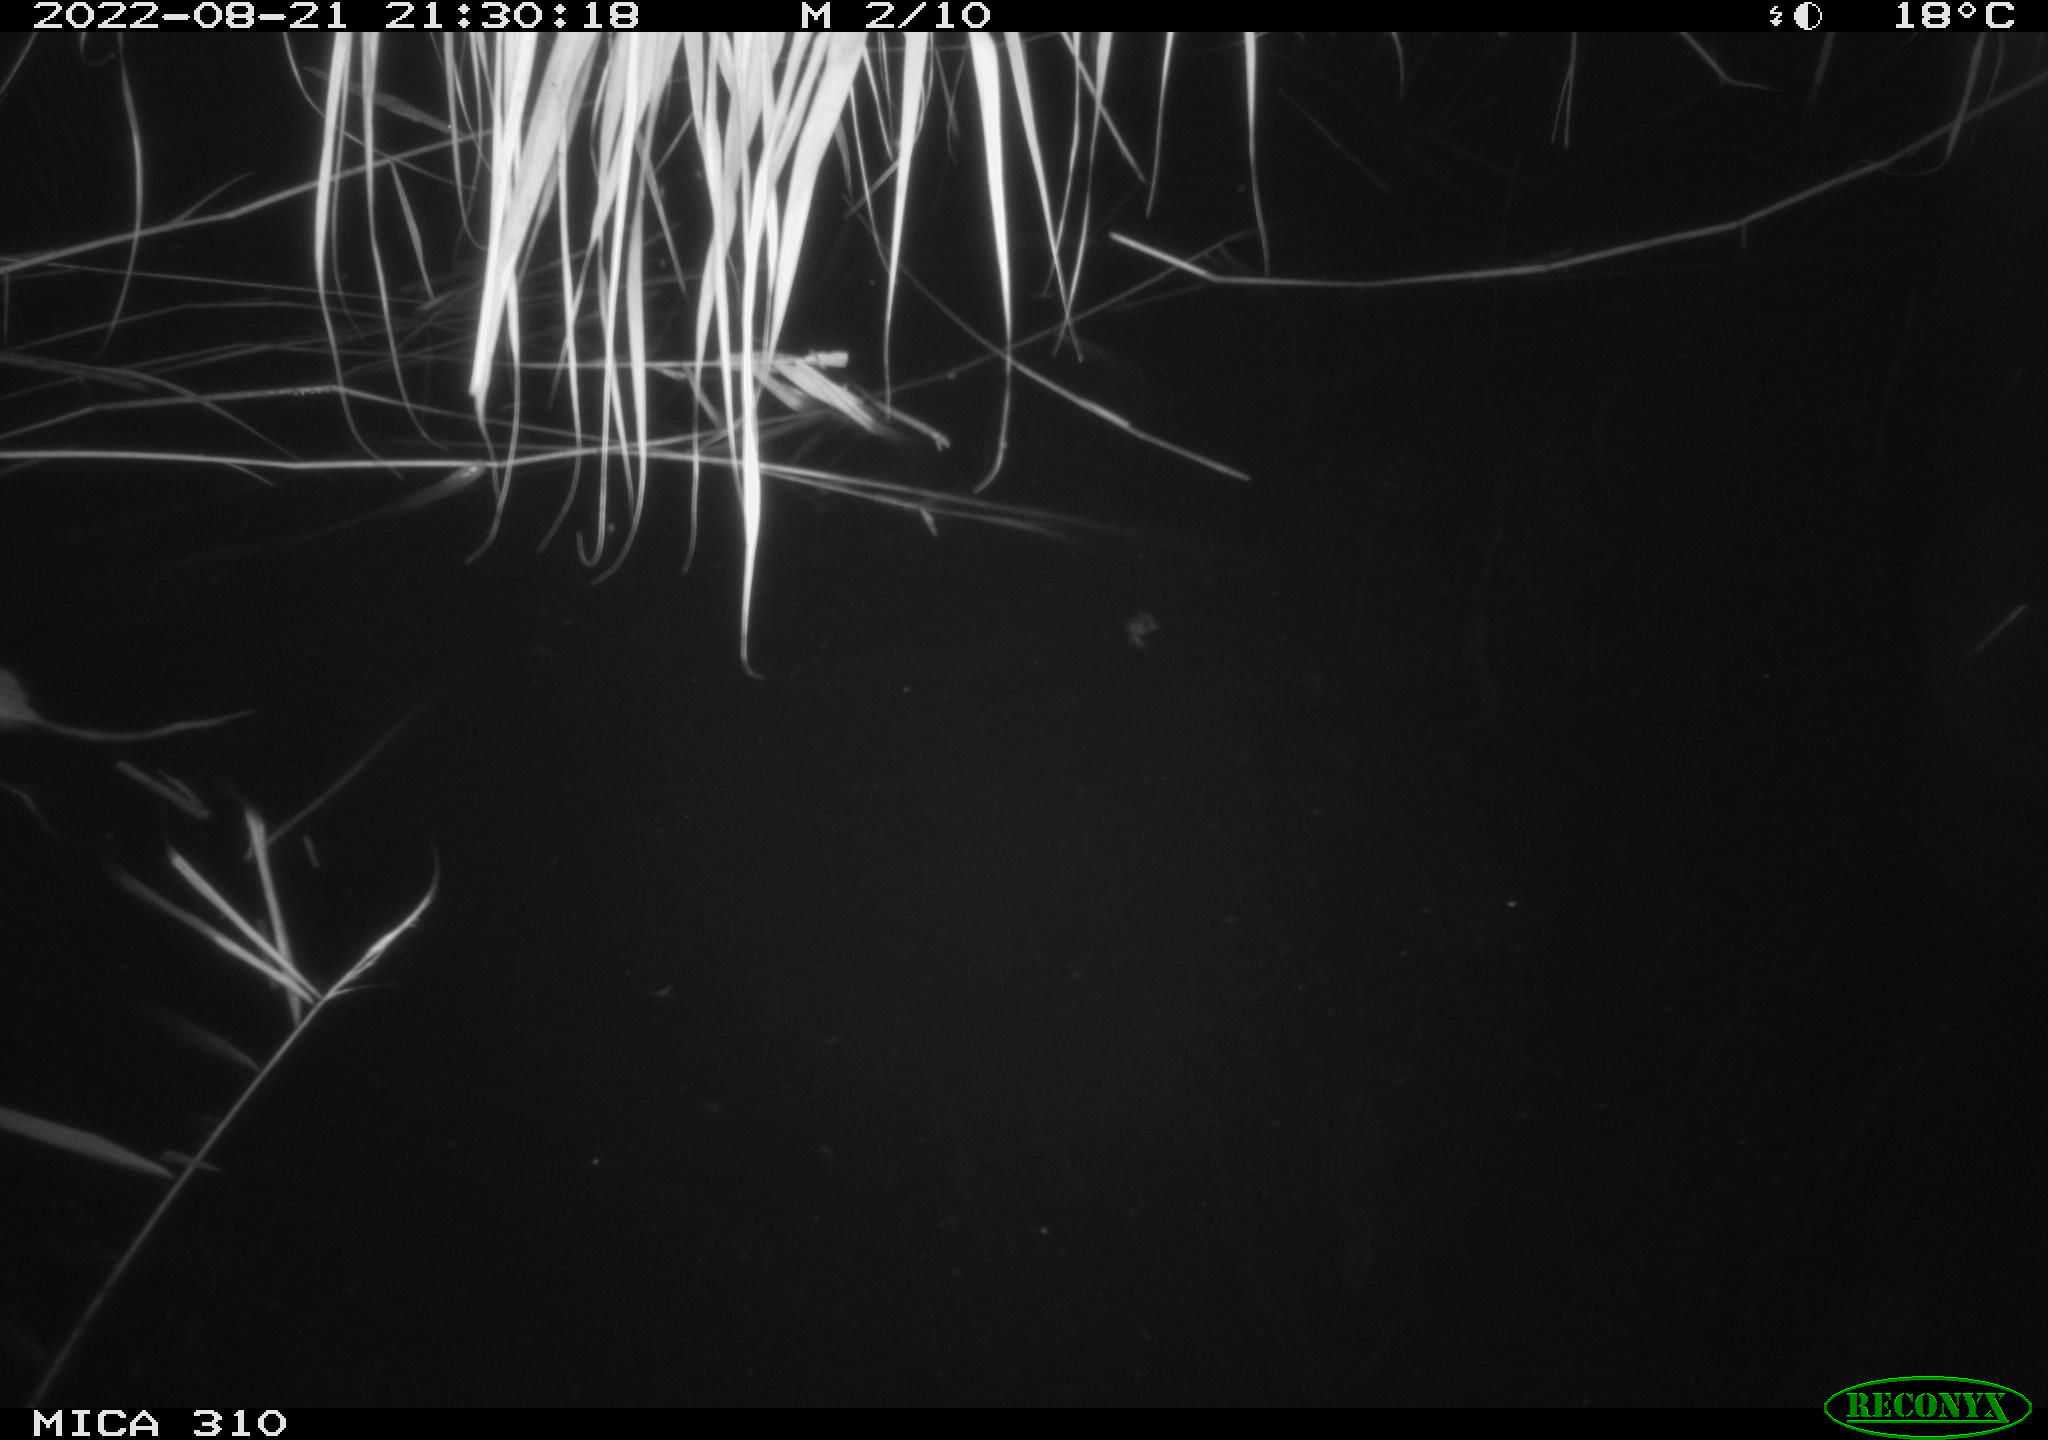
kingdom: Animalia
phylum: Chordata
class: Mammalia
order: Rodentia
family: Muridae
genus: Rattus
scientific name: Rattus norvegicus
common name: Brown rat
